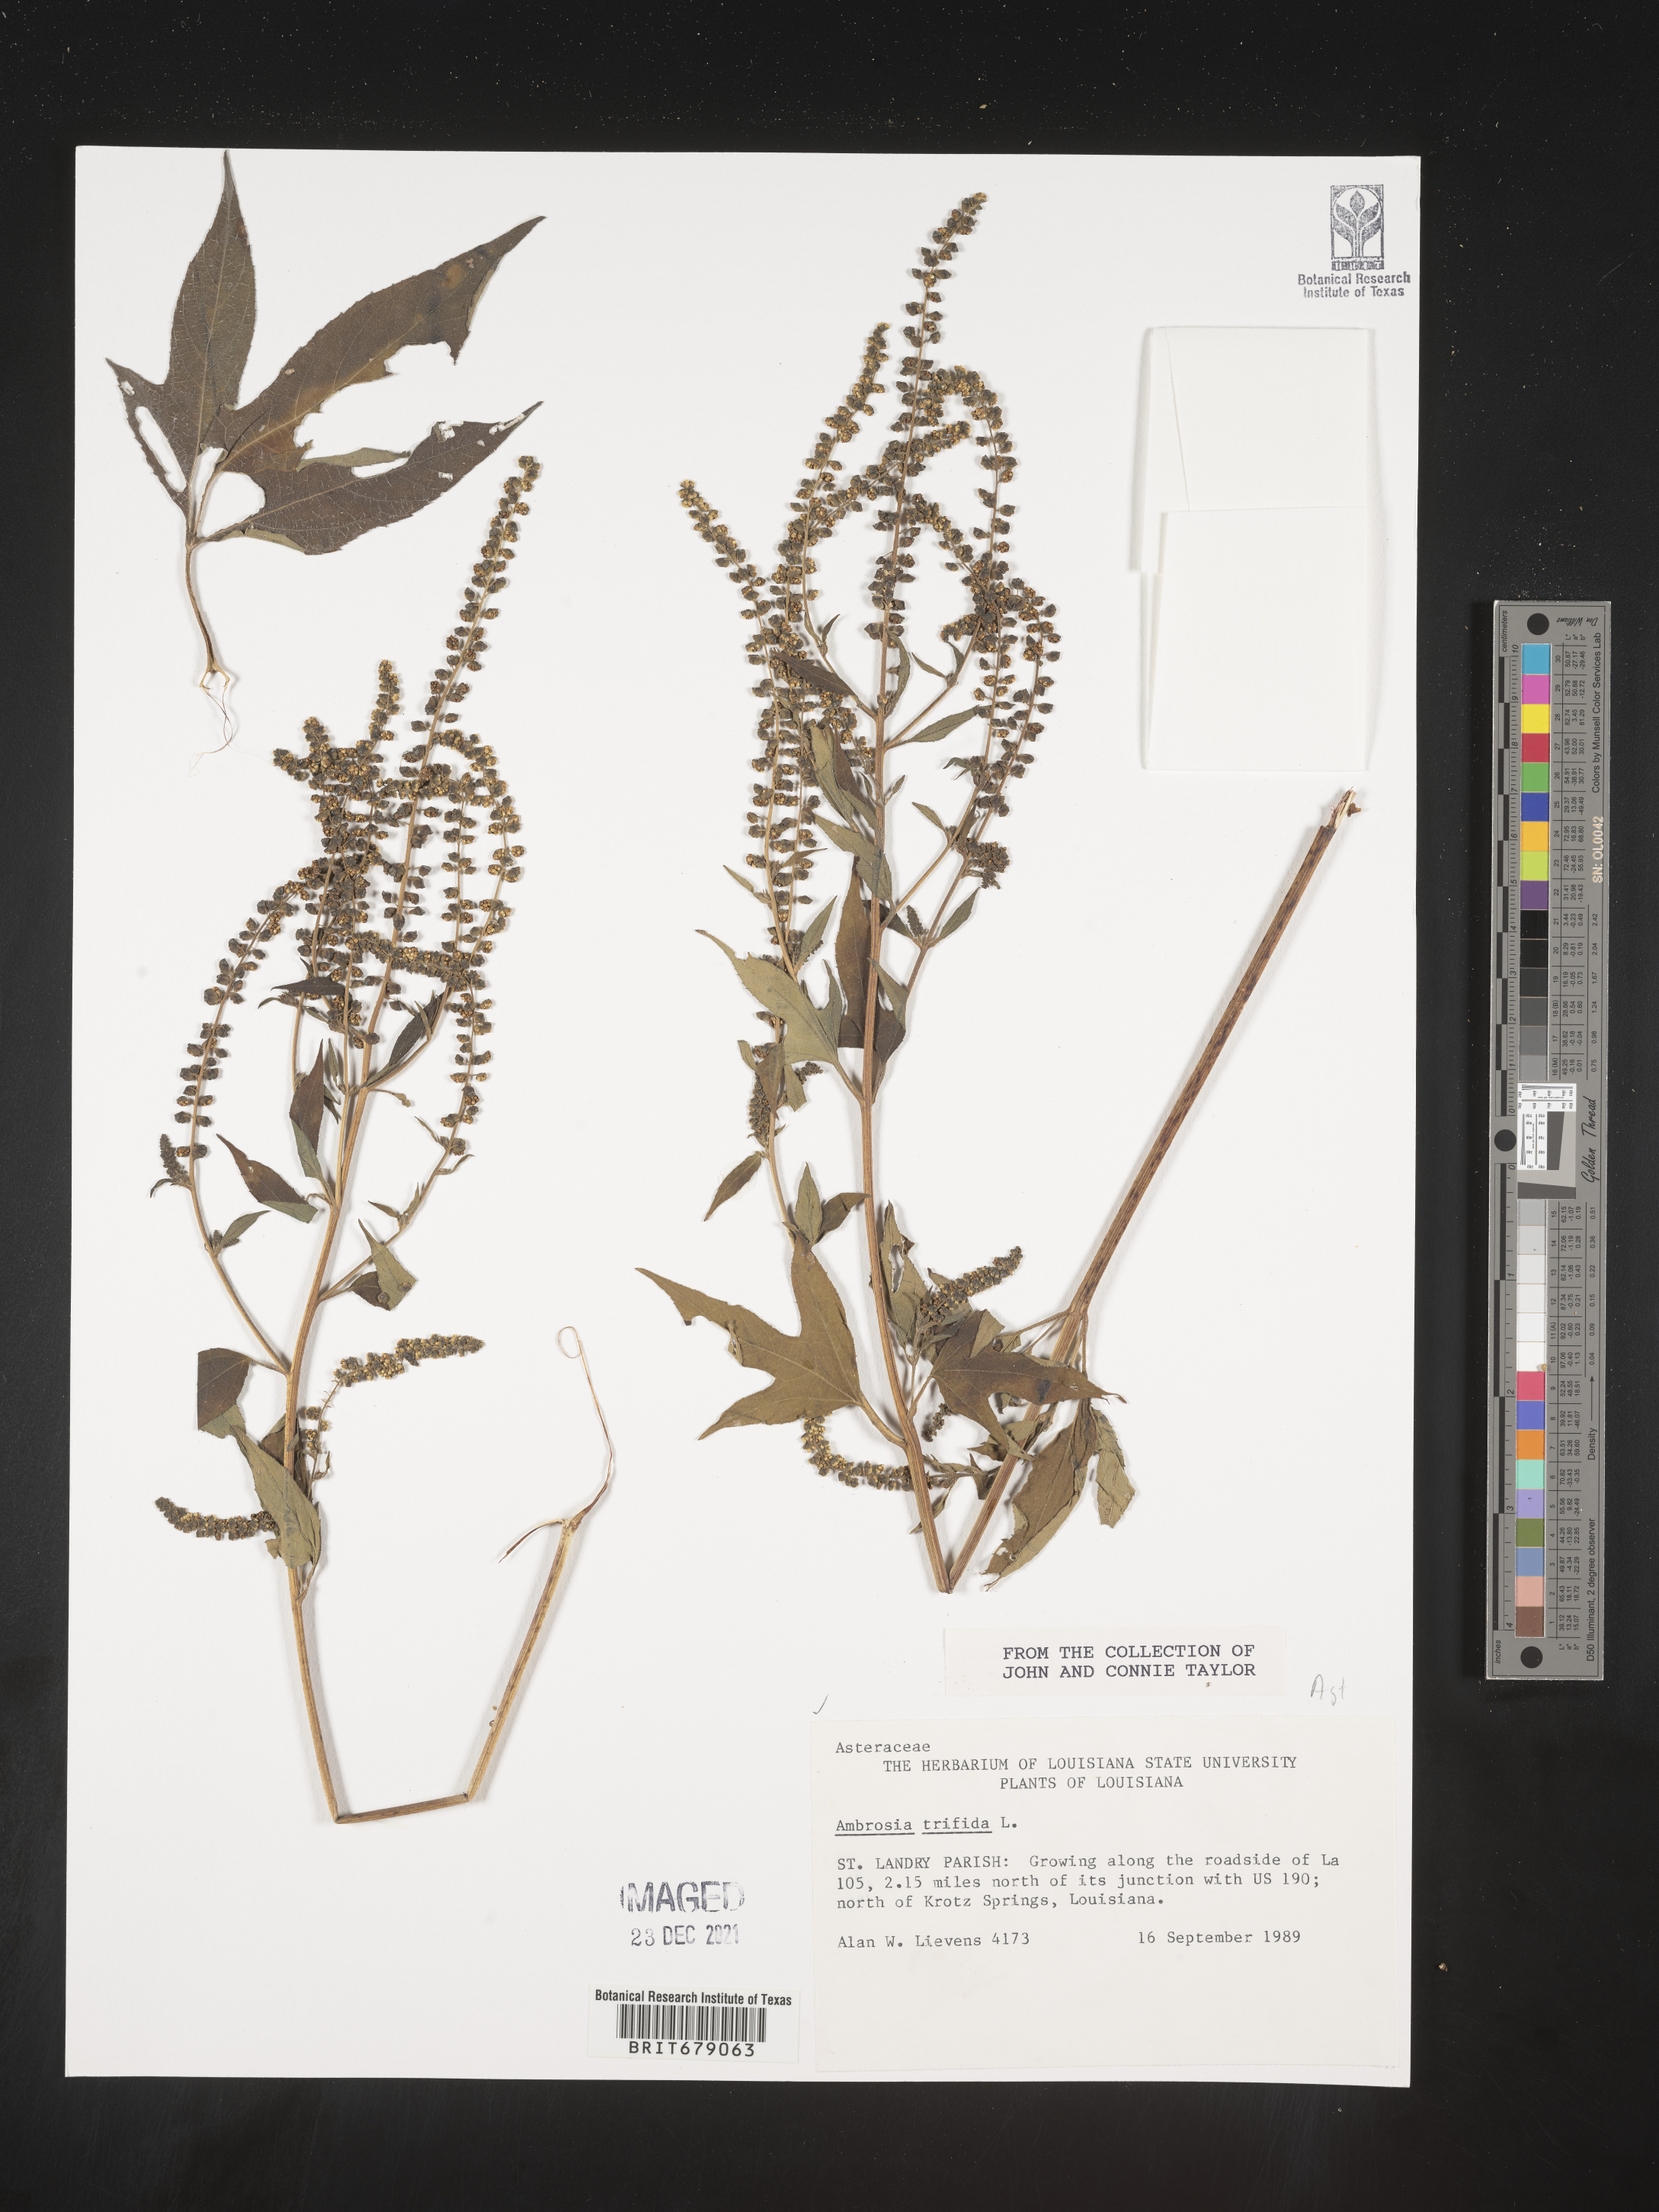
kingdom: Plantae
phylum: Tracheophyta
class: Magnoliopsida
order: Asterales
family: Asteraceae
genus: Ambrosia
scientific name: Ambrosia trifida
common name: Giant ragweed
